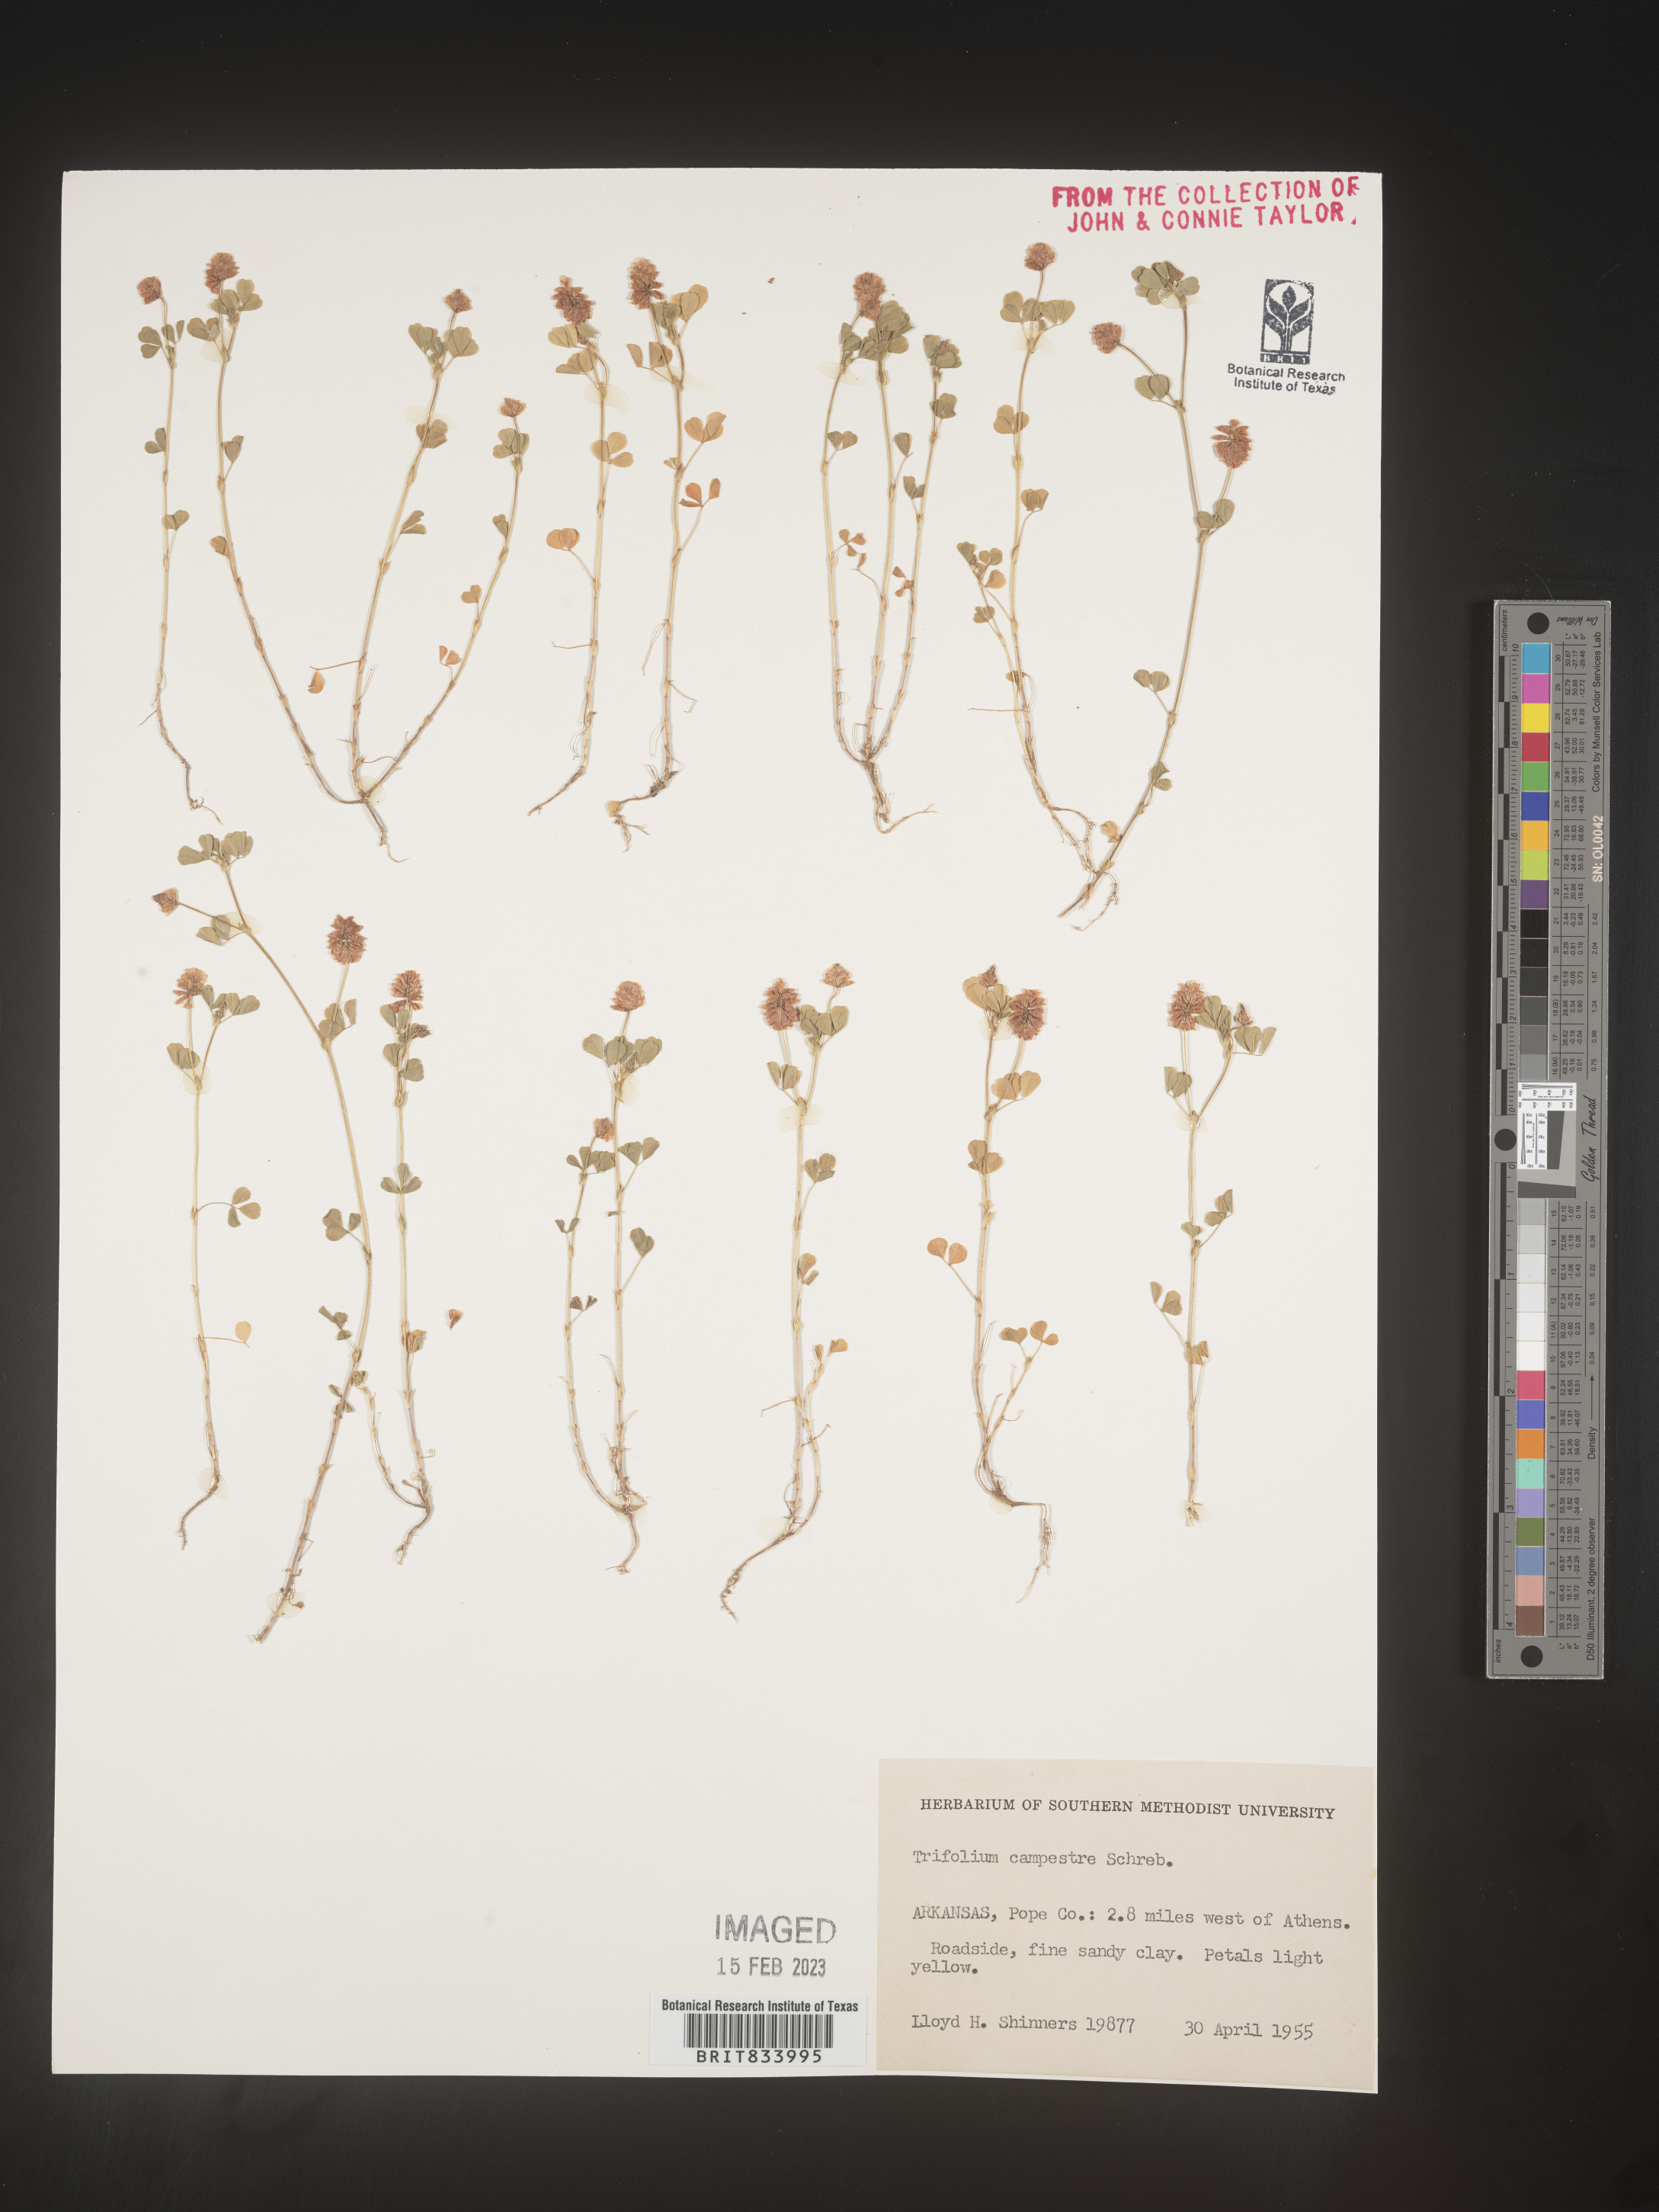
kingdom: Plantae
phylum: Tracheophyta
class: Magnoliopsida
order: Fabales
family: Fabaceae
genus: Trifolium
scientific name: Trifolium campestre
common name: Field clover
